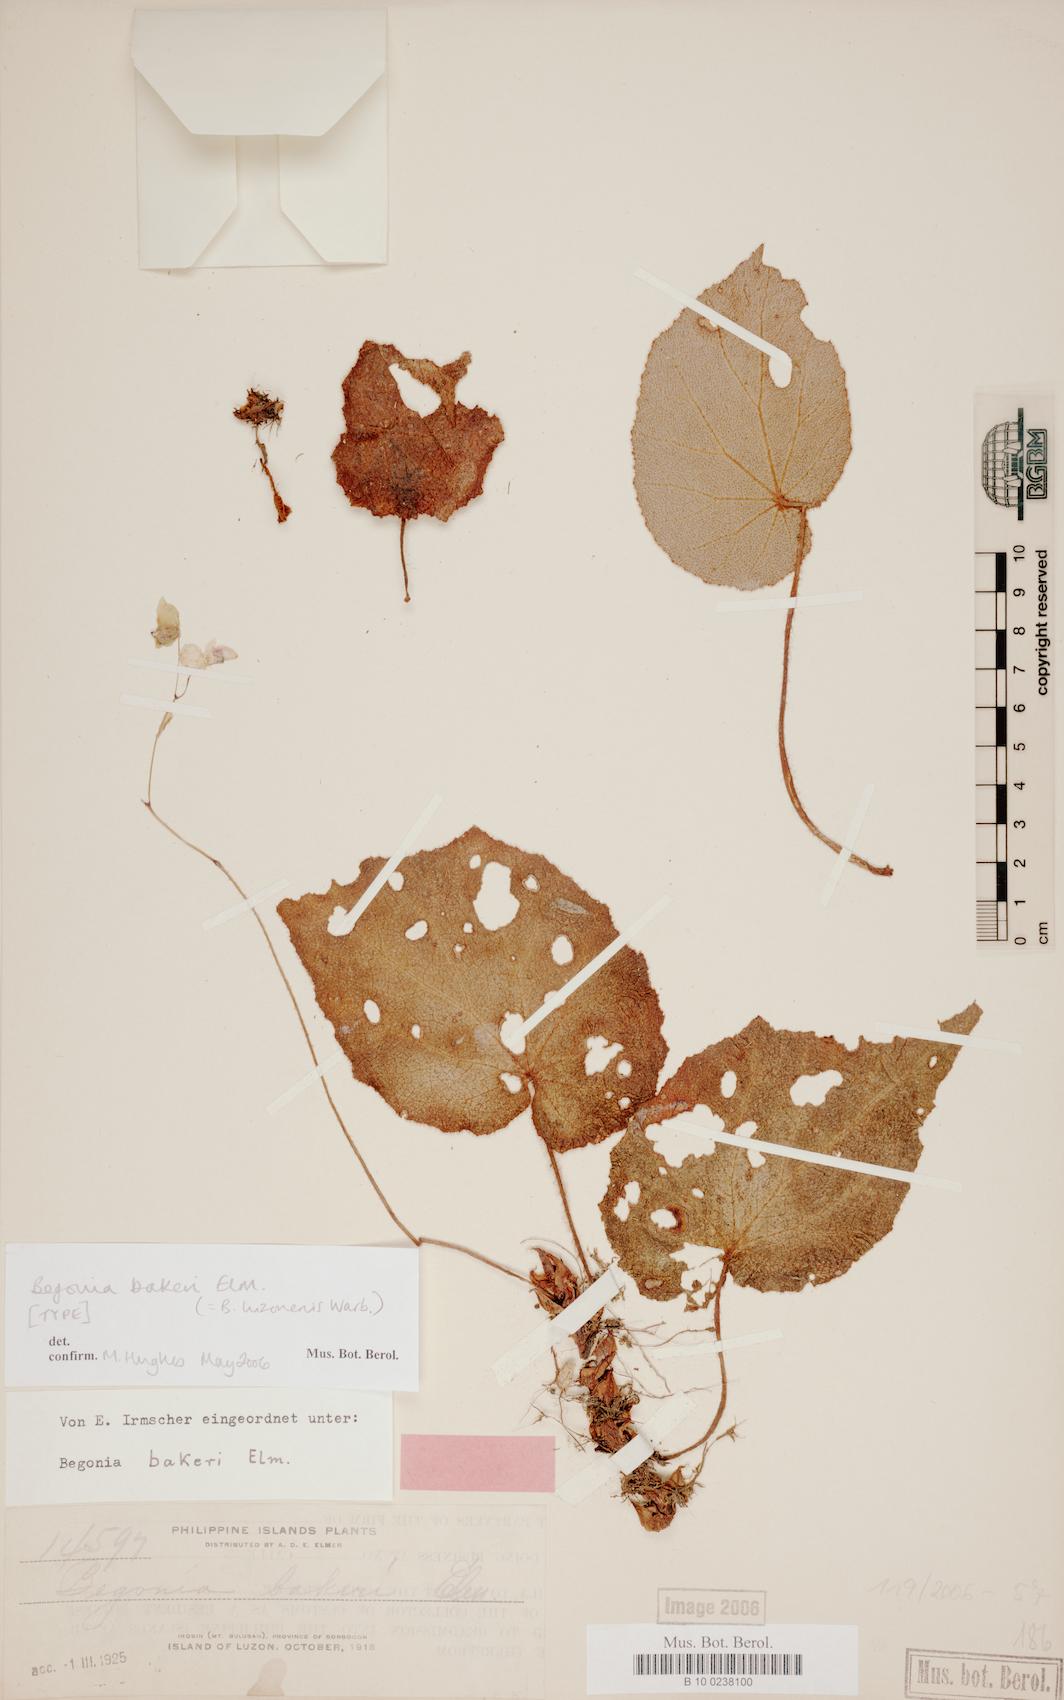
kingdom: Plantae
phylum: Tracheophyta
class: Magnoliopsida
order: Cucurbitales
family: Begoniaceae
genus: Begonia
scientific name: Begonia bakeri
